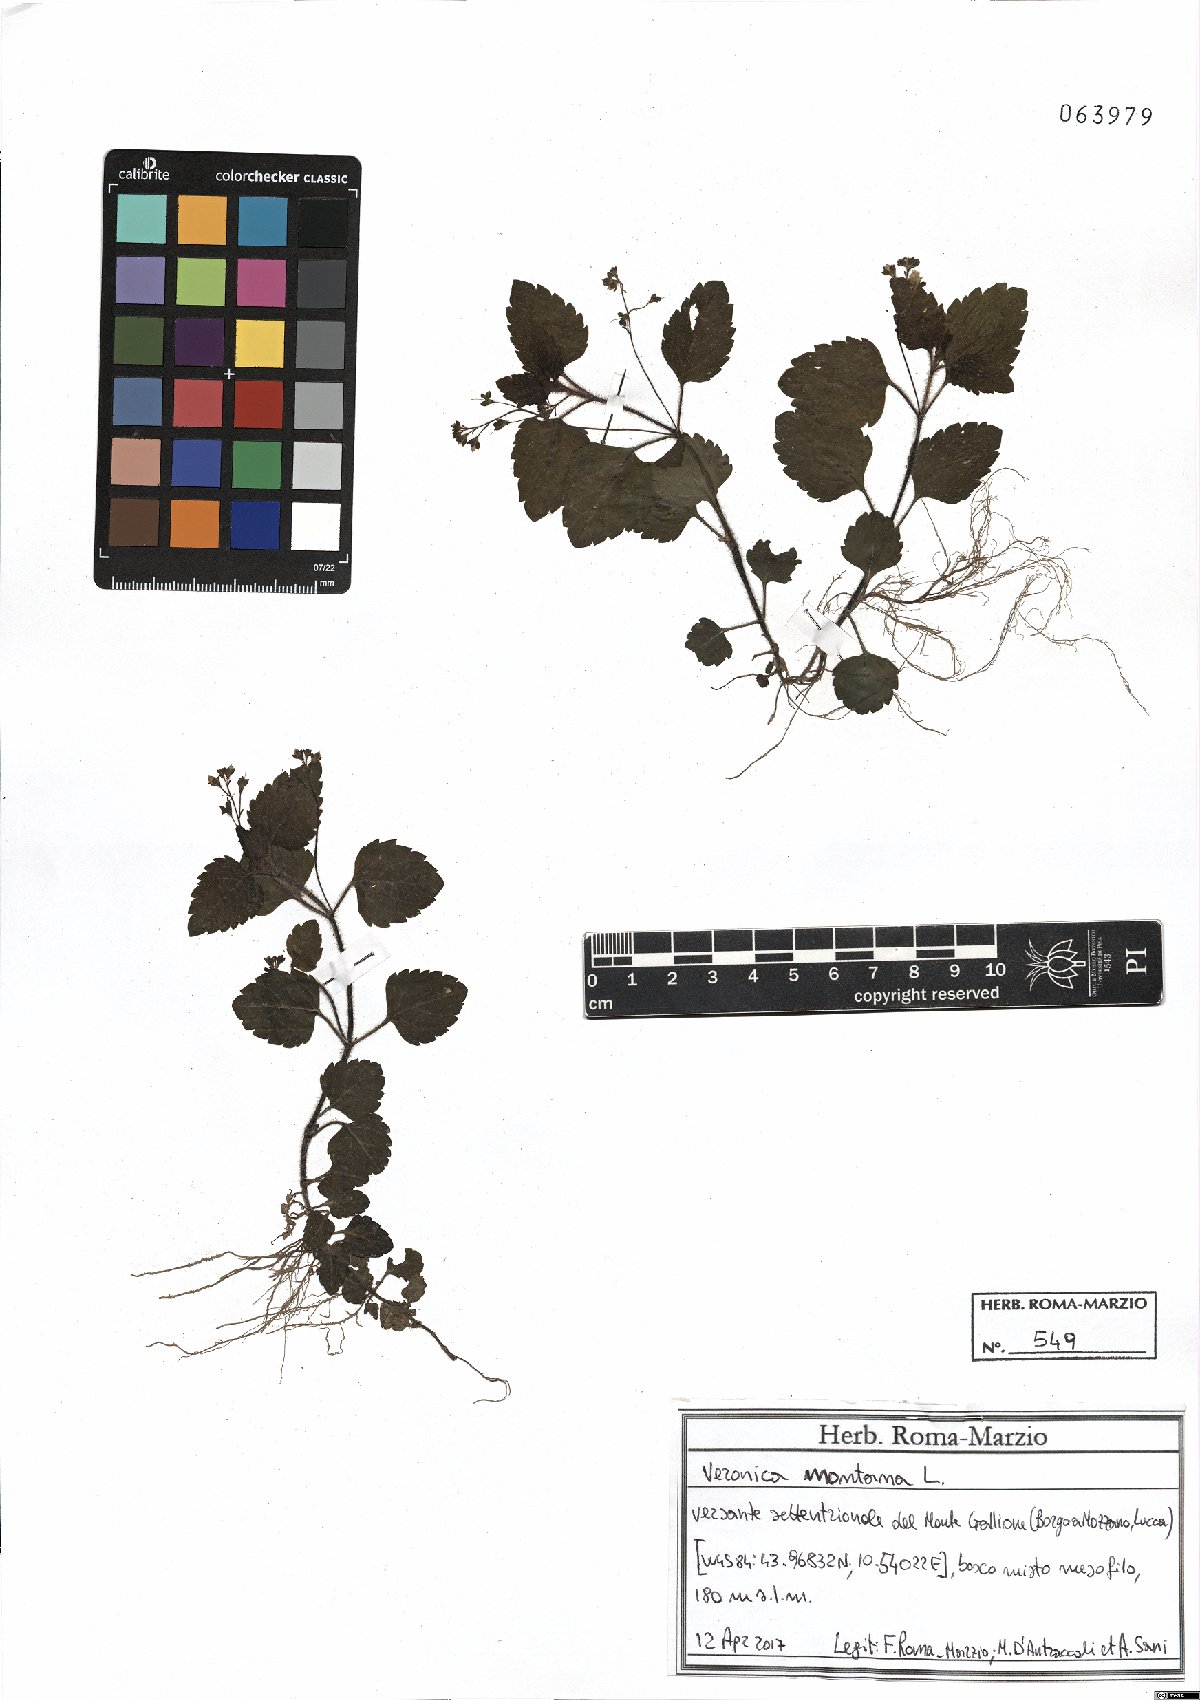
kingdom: Plantae
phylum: Tracheophyta
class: Magnoliopsida
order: Lamiales
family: Plantaginaceae
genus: Veronica
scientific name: Veronica montana
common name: Wood speedwell
